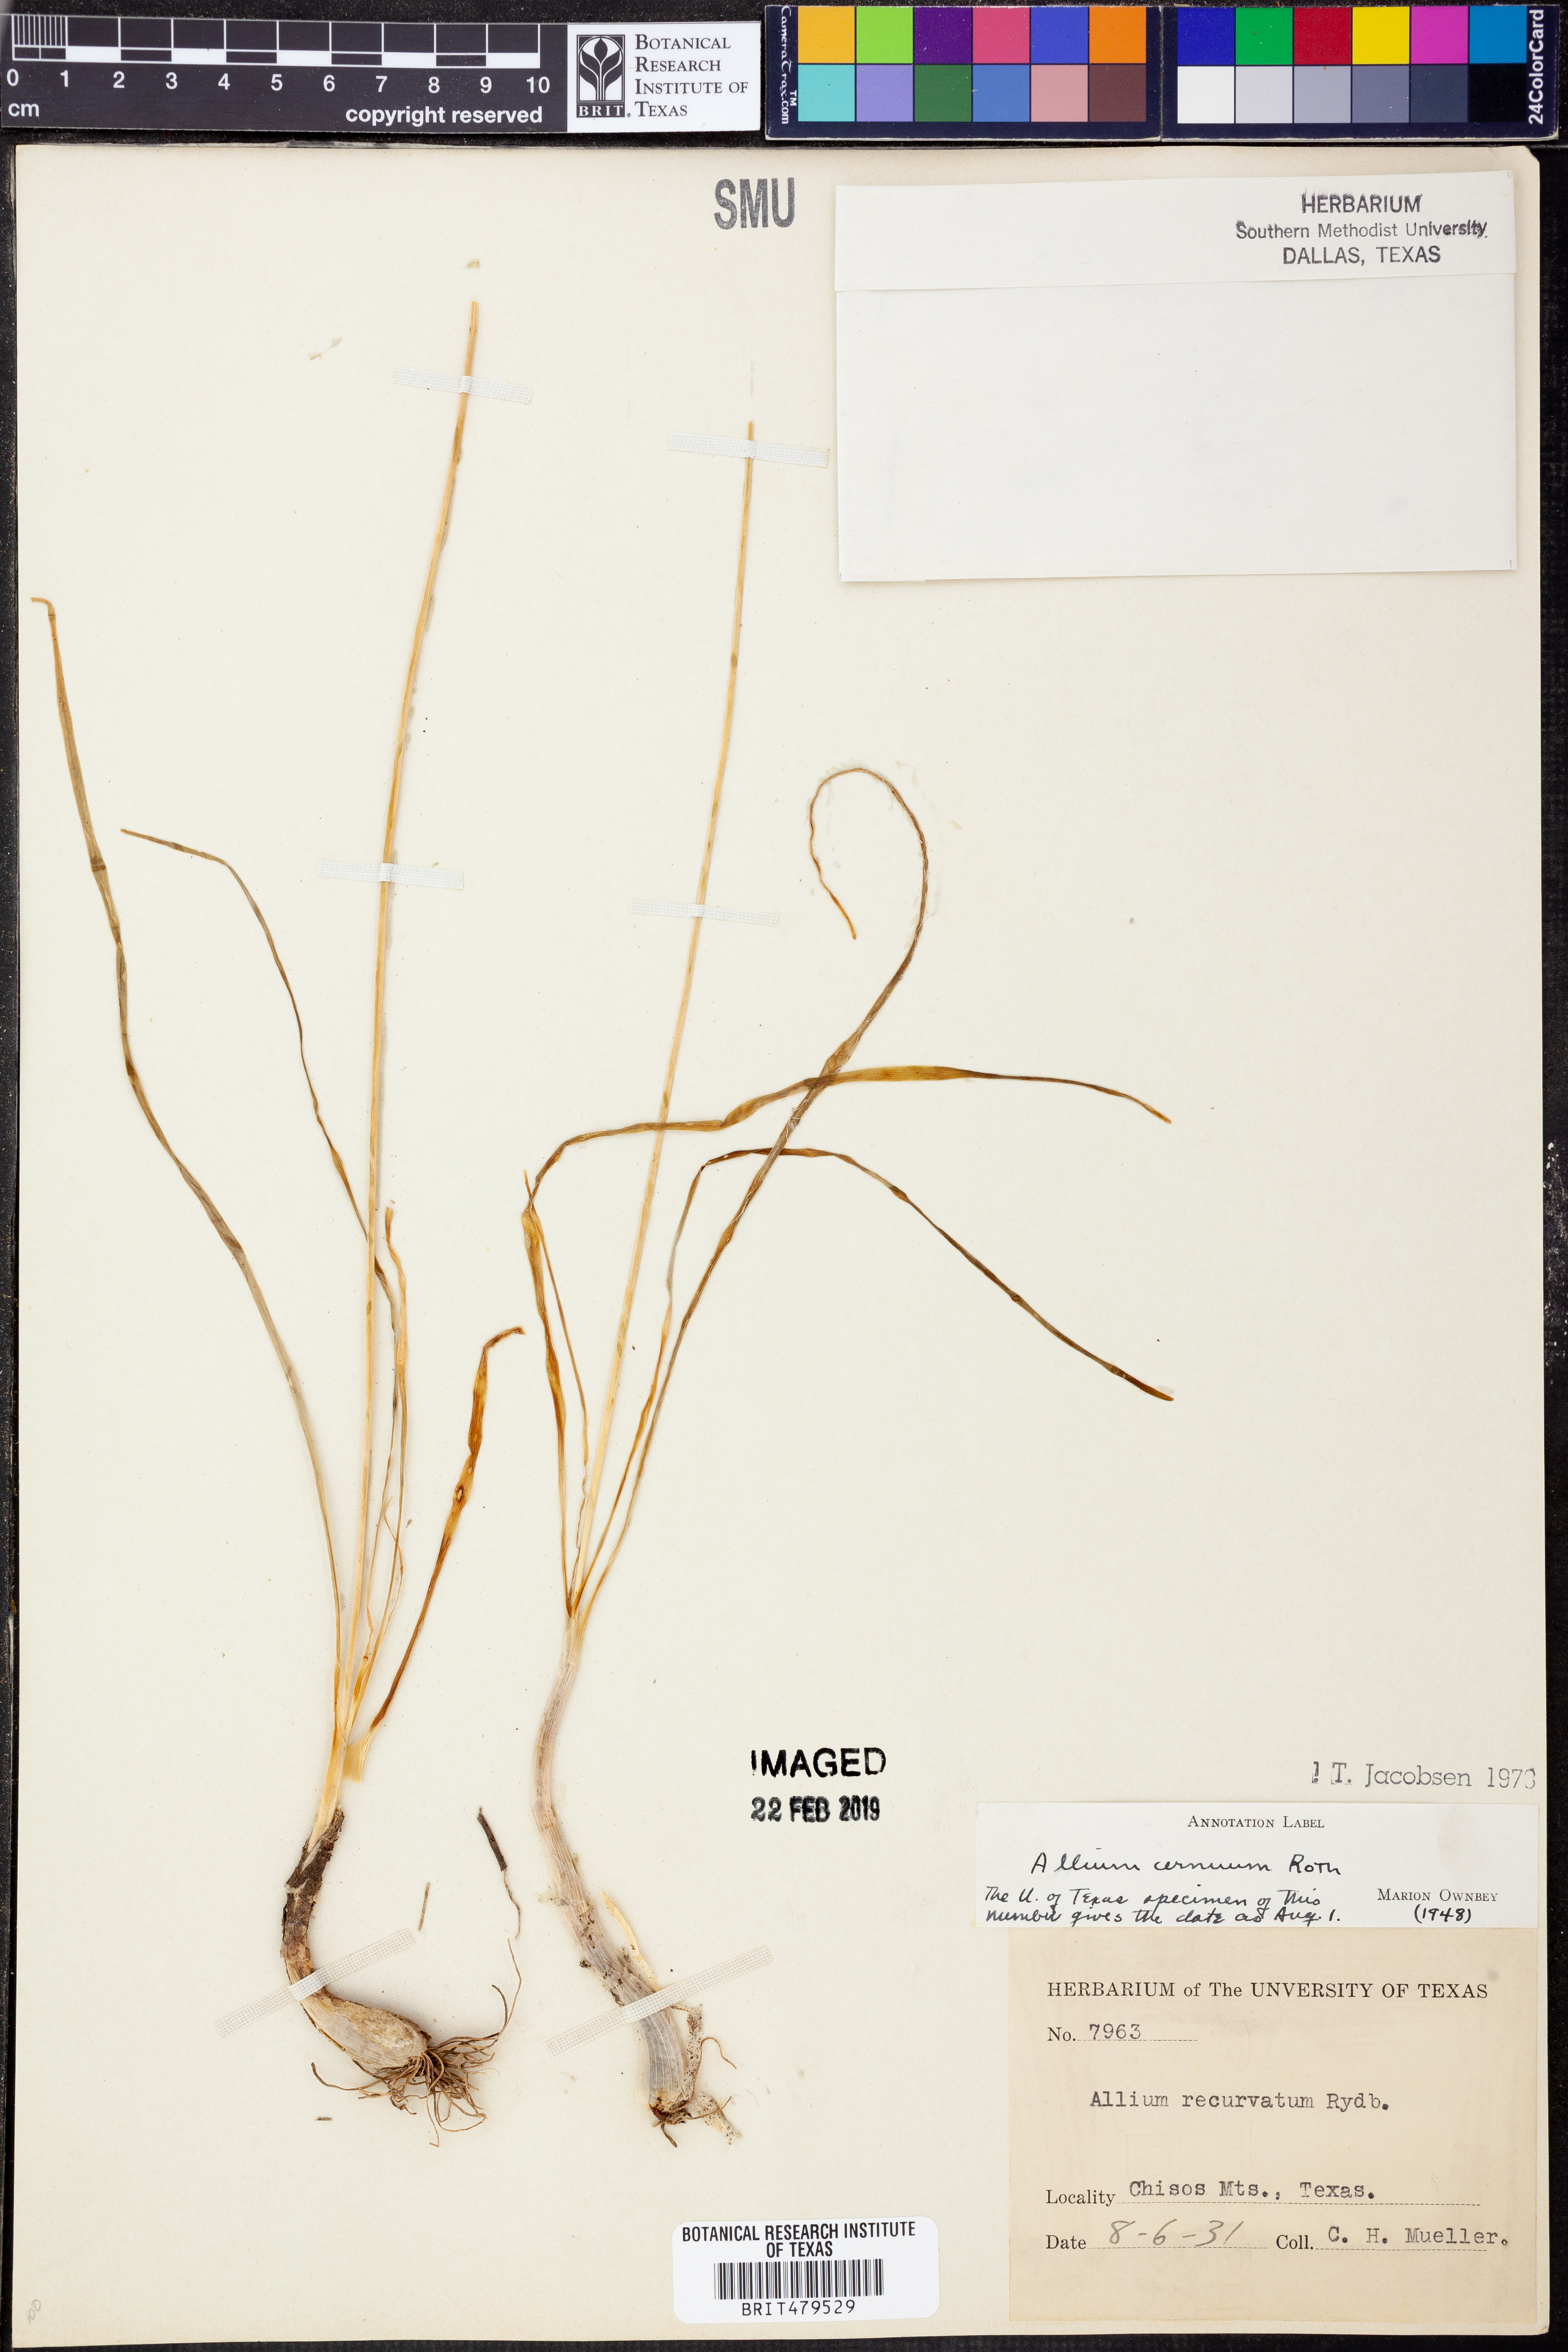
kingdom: Plantae
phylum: Tracheophyta
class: Liliopsida
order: Asparagales
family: Amaryllidaceae
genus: Allium
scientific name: Allium cernuum
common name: Nodding onion
